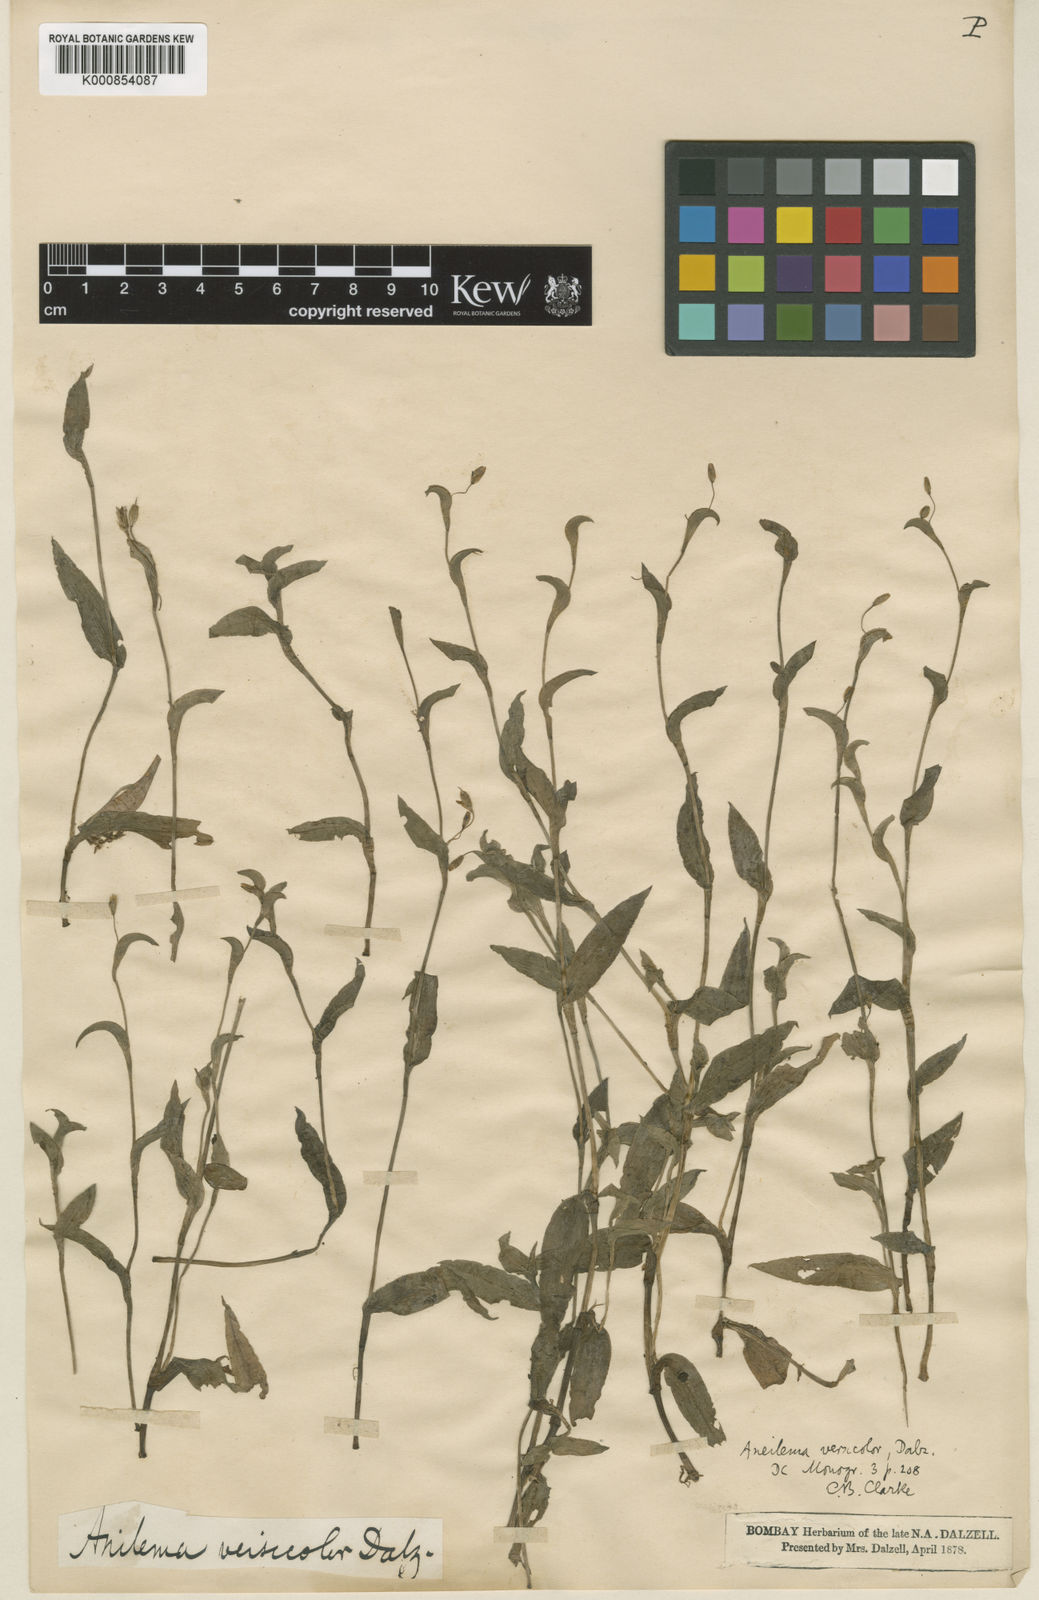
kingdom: Plantae
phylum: Tracheophyta
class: Liliopsida
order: Commelinales
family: Commelinaceae
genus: Murdannia
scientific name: Murdannia
